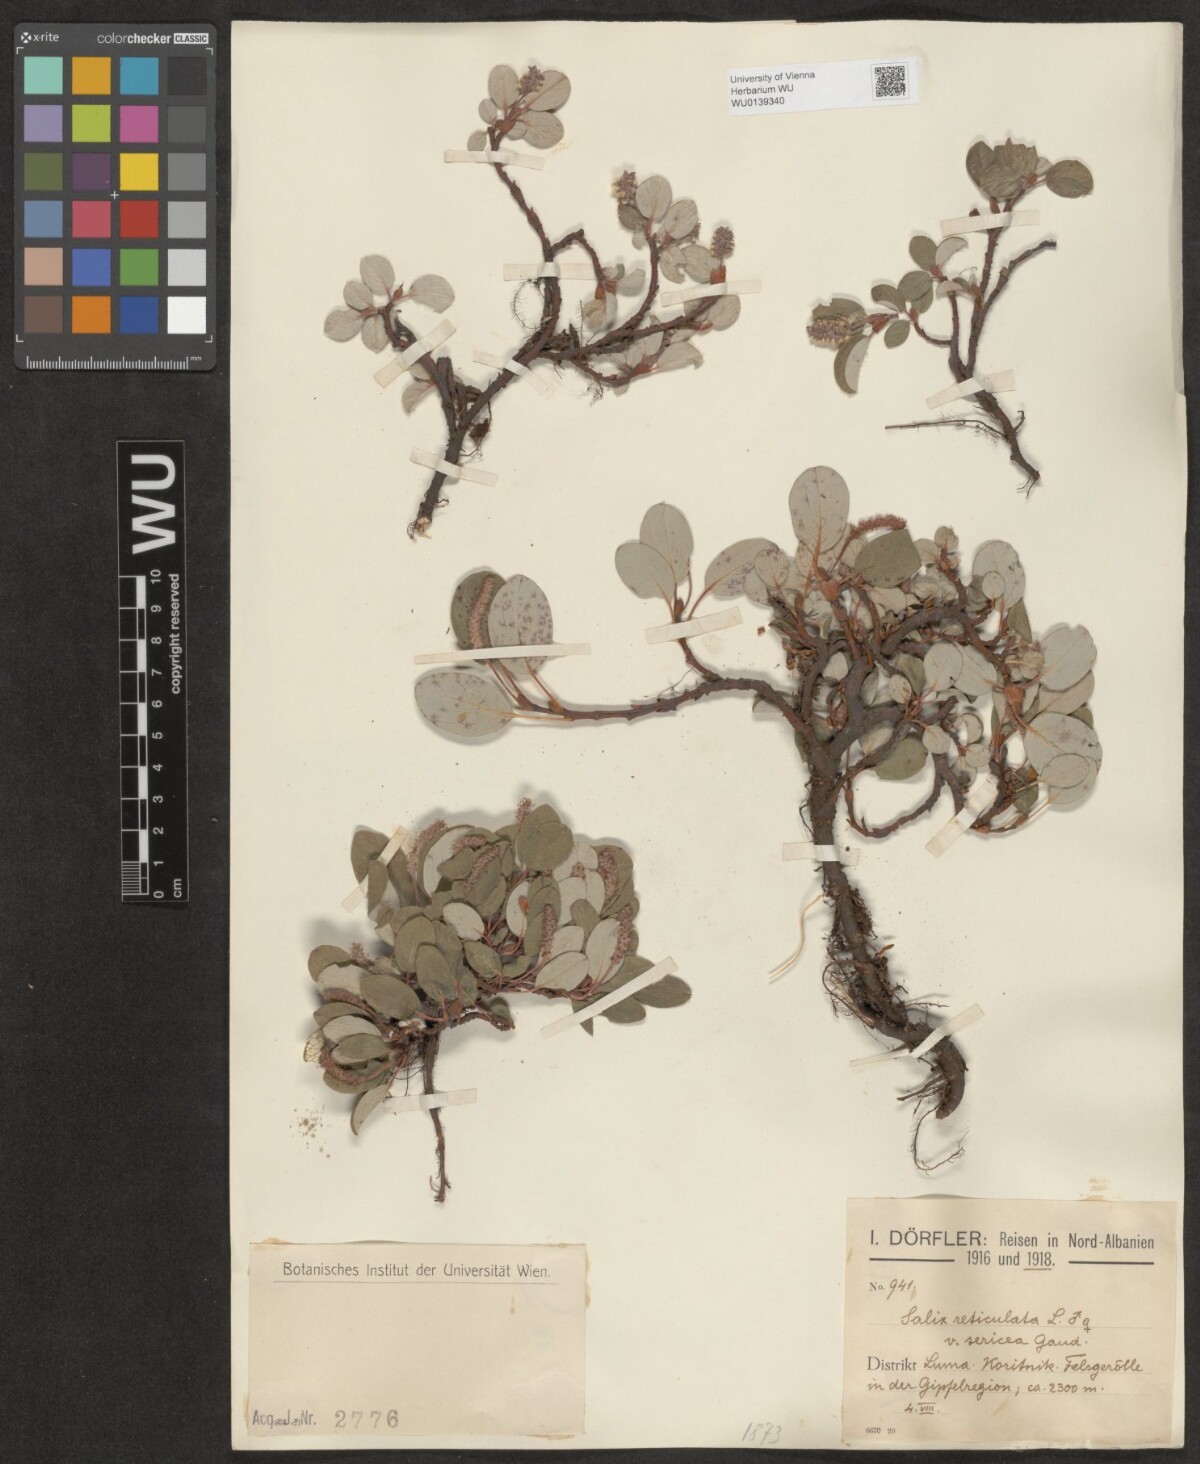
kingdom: Plantae
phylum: Tracheophyta
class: Magnoliopsida
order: Malpighiales
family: Salicaceae
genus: Salix
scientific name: Salix reticulata
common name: Net-leaved willow
